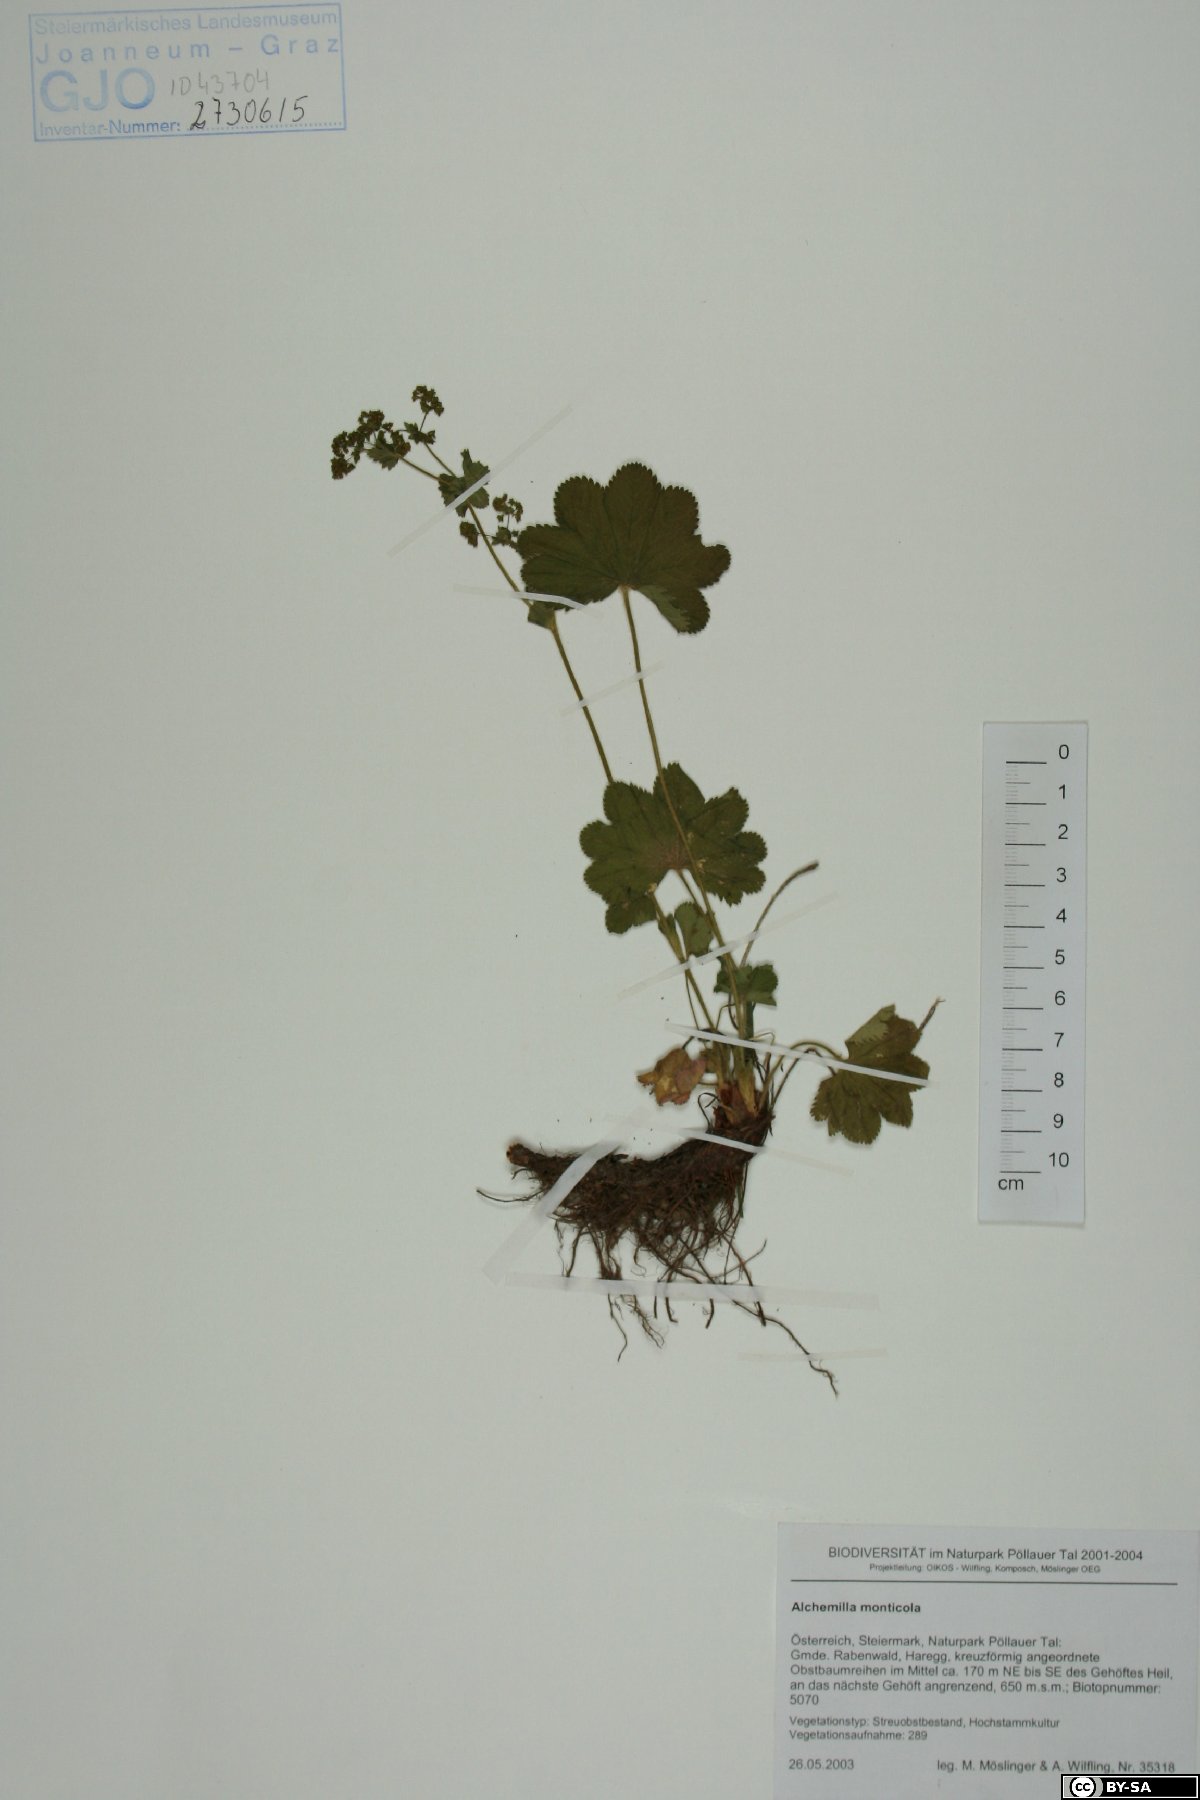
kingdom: Plantae
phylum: Tracheophyta
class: Magnoliopsida
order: Rosales
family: Rosaceae
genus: Alchemilla
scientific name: Alchemilla monticola
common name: Hairy lady's mantle
